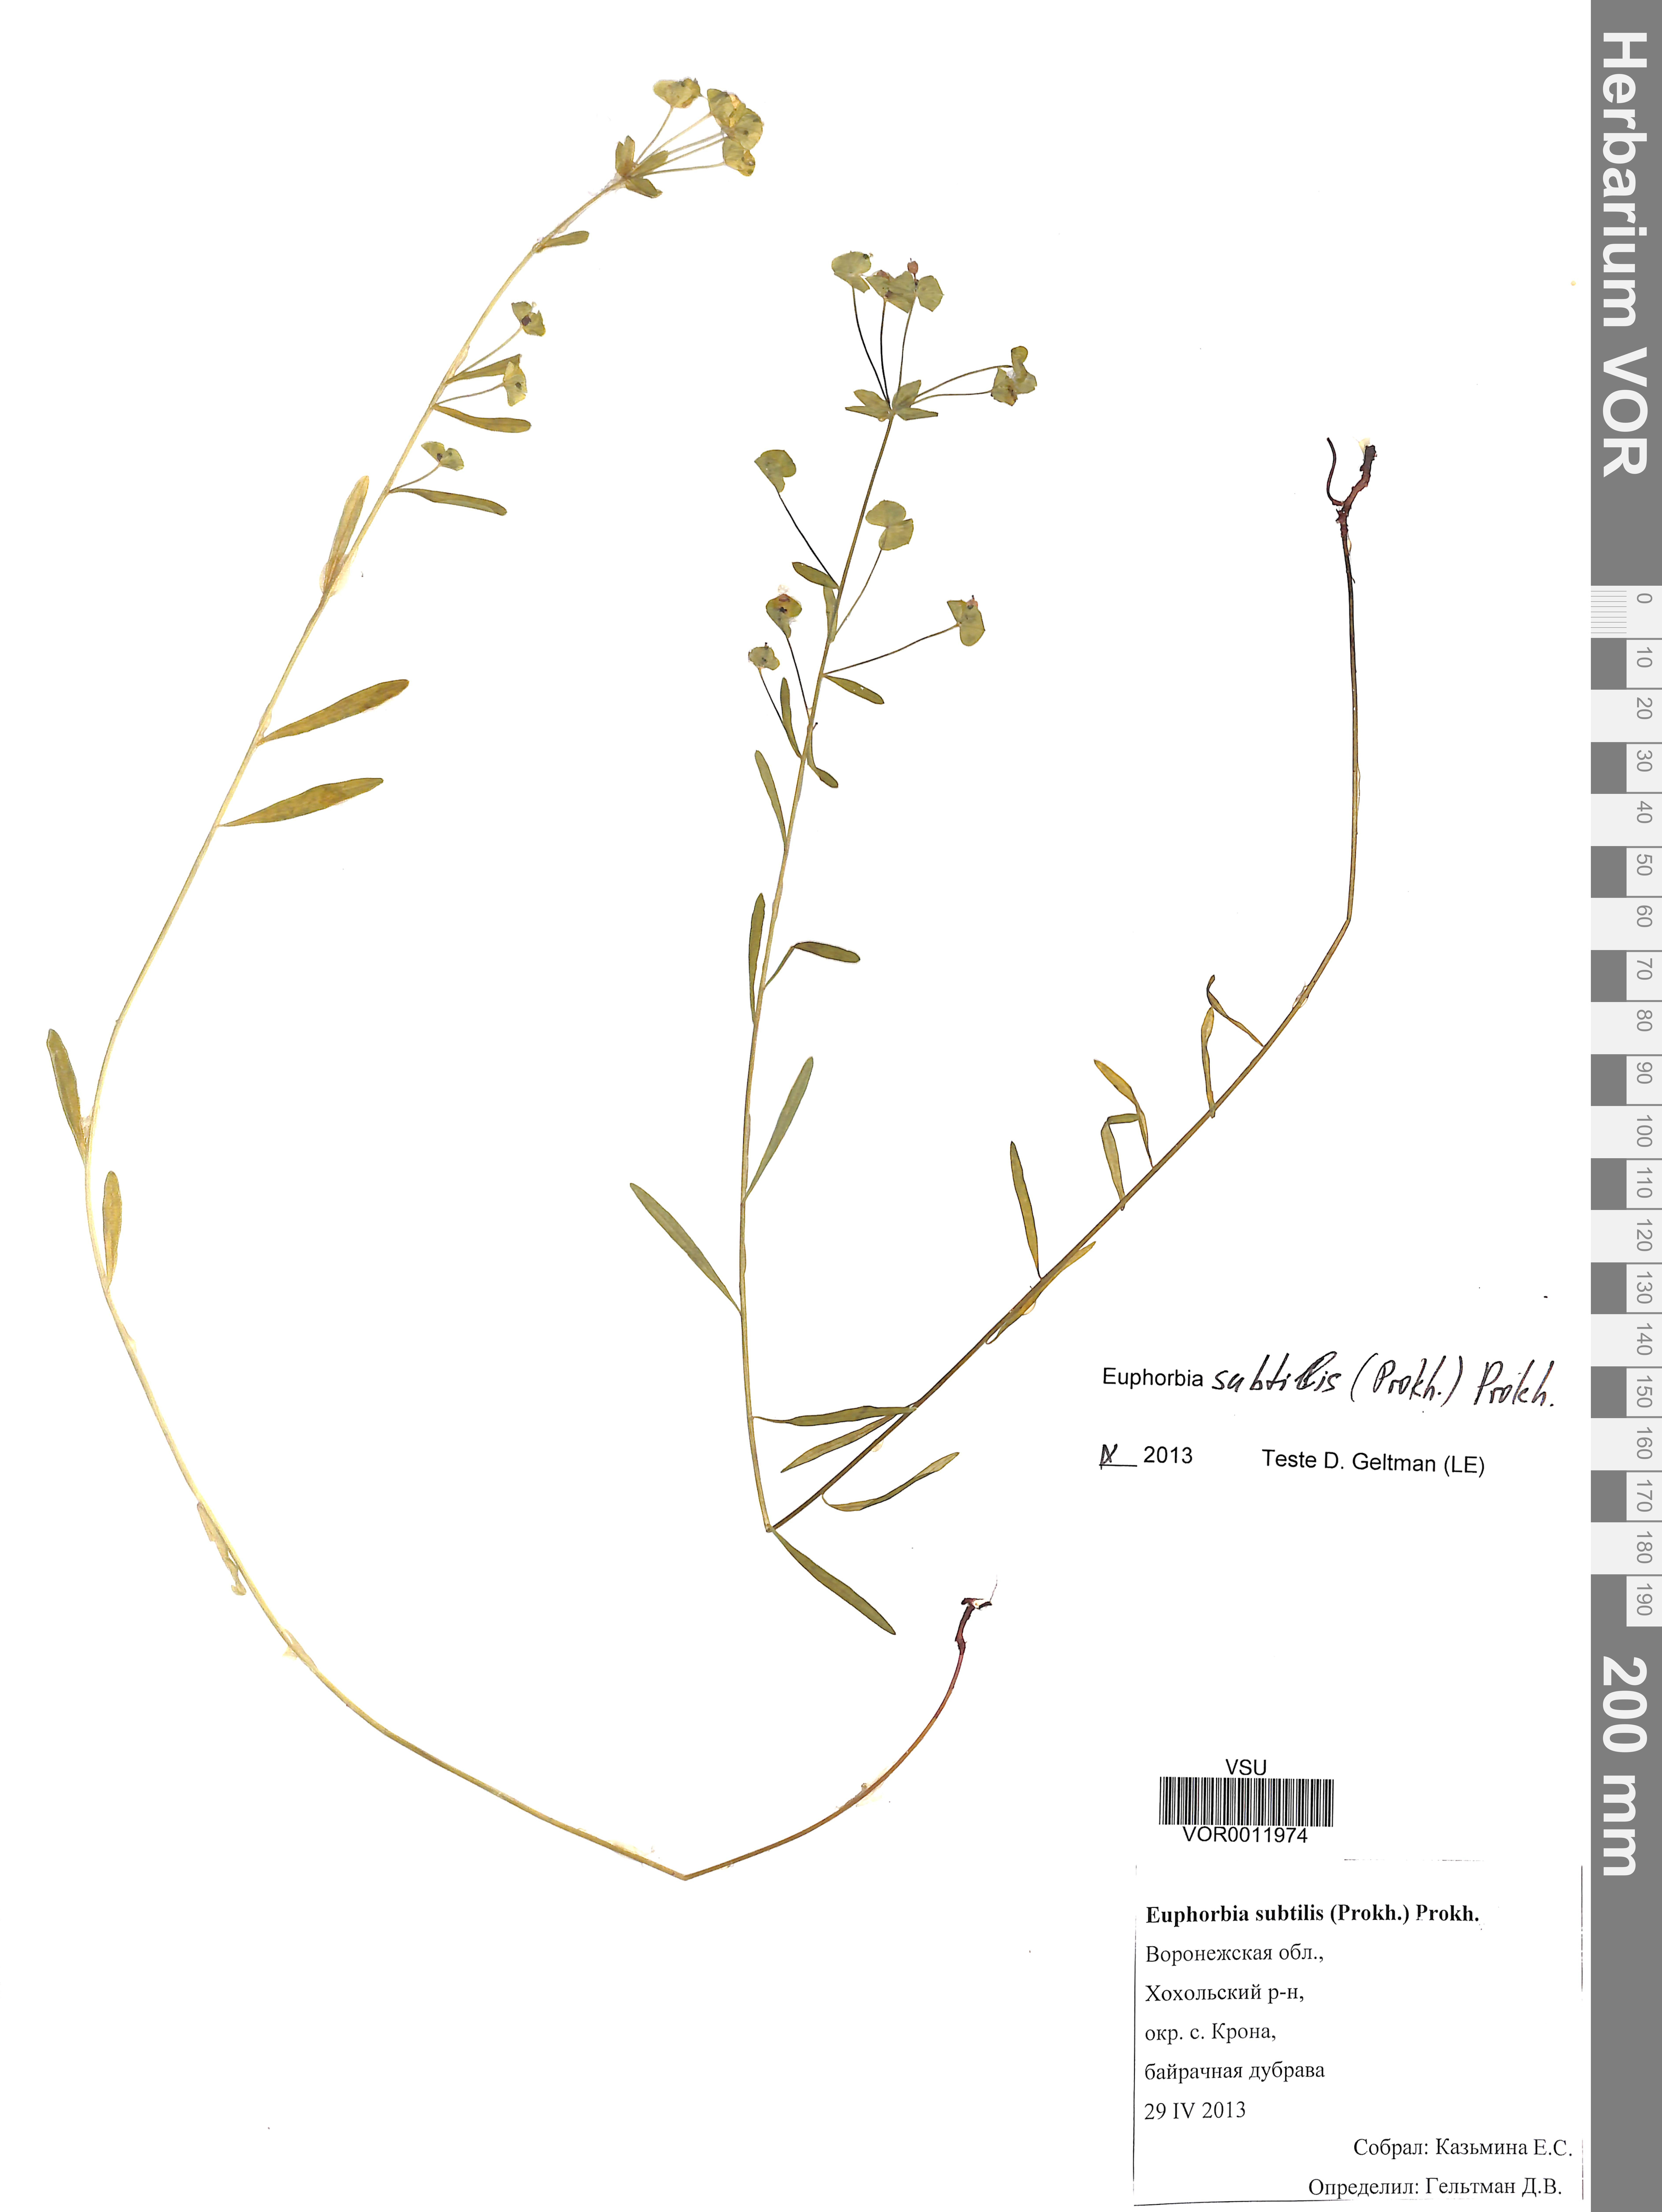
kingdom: Plantae
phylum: Tracheophyta
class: Magnoliopsida
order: Malpighiales
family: Euphorbiaceae
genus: Euphorbia
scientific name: Euphorbia microcarpa
